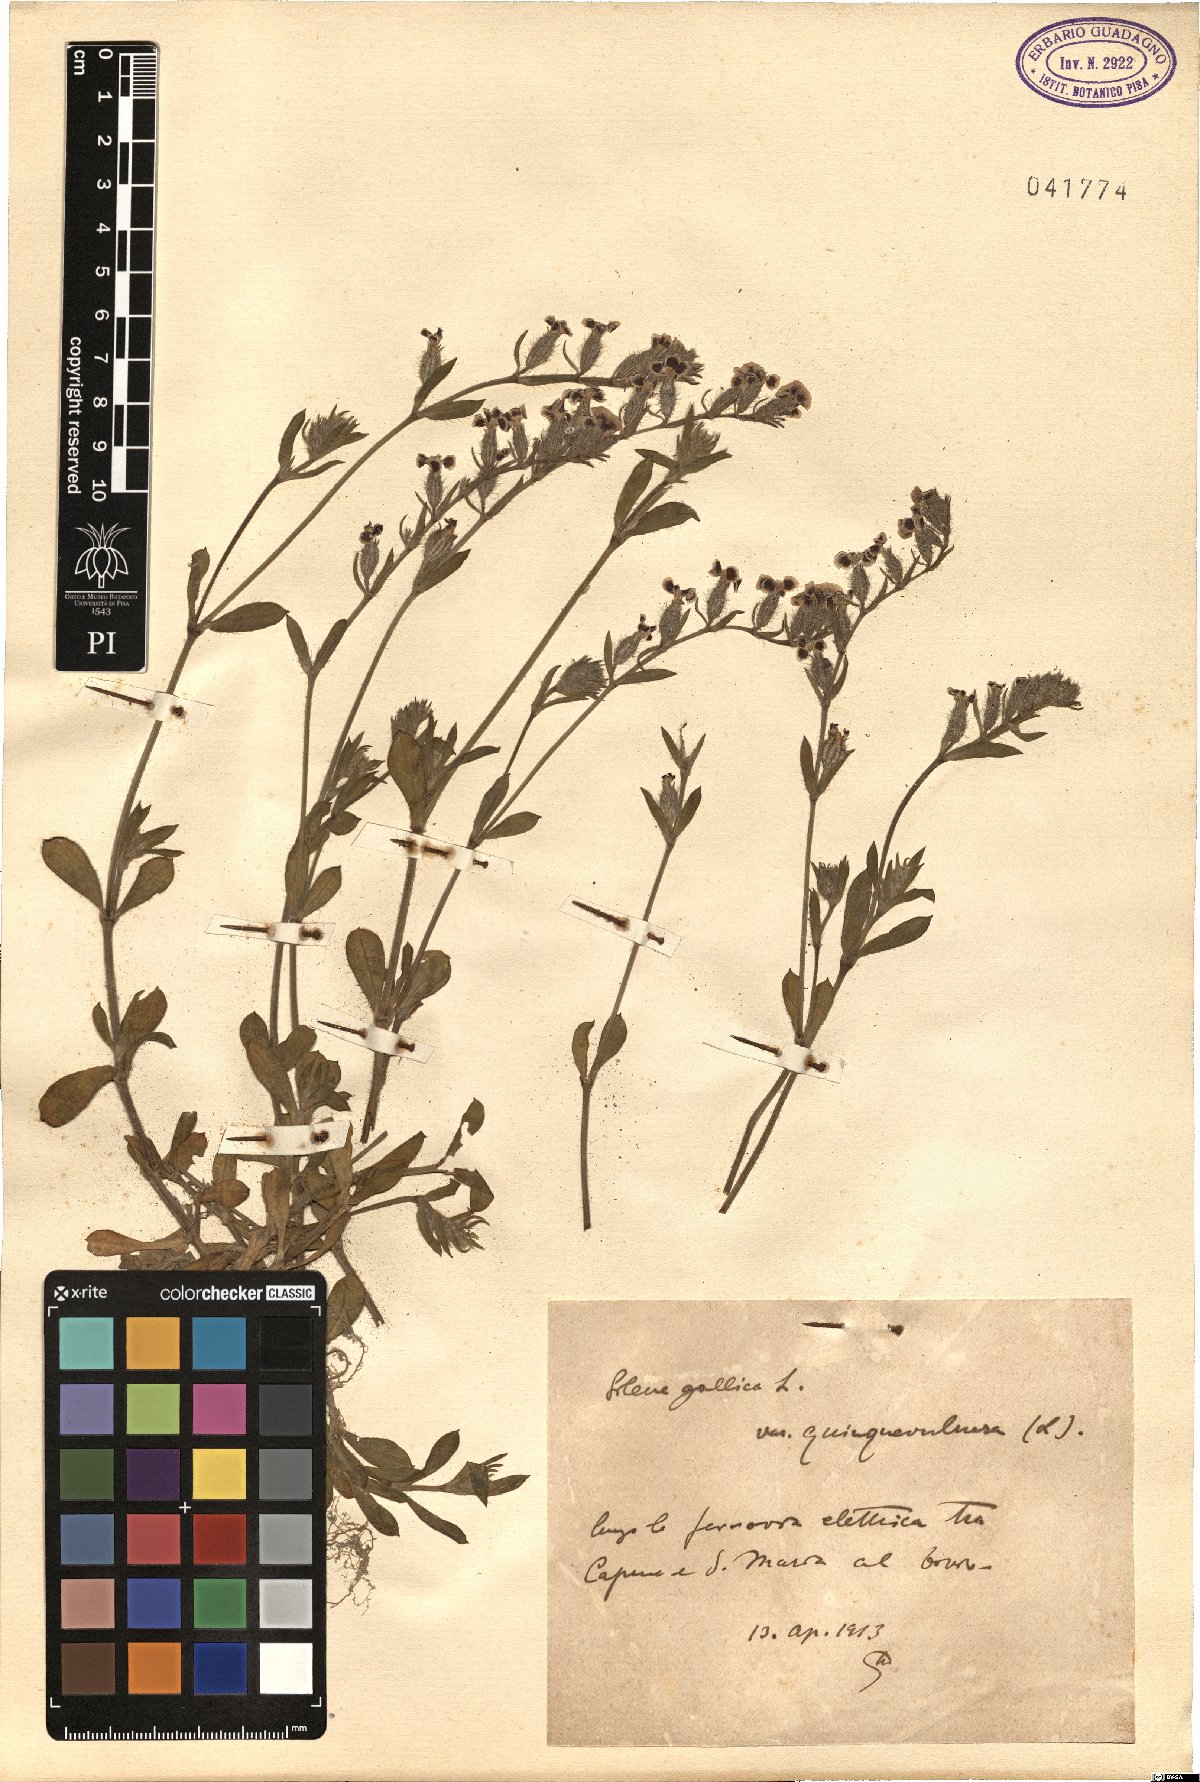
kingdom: Plantae
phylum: Tracheophyta
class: Magnoliopsida
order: Caryophyllales
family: Caryophyllaceae
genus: Silene
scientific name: Silene gallica
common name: Small-flowered catchfly
